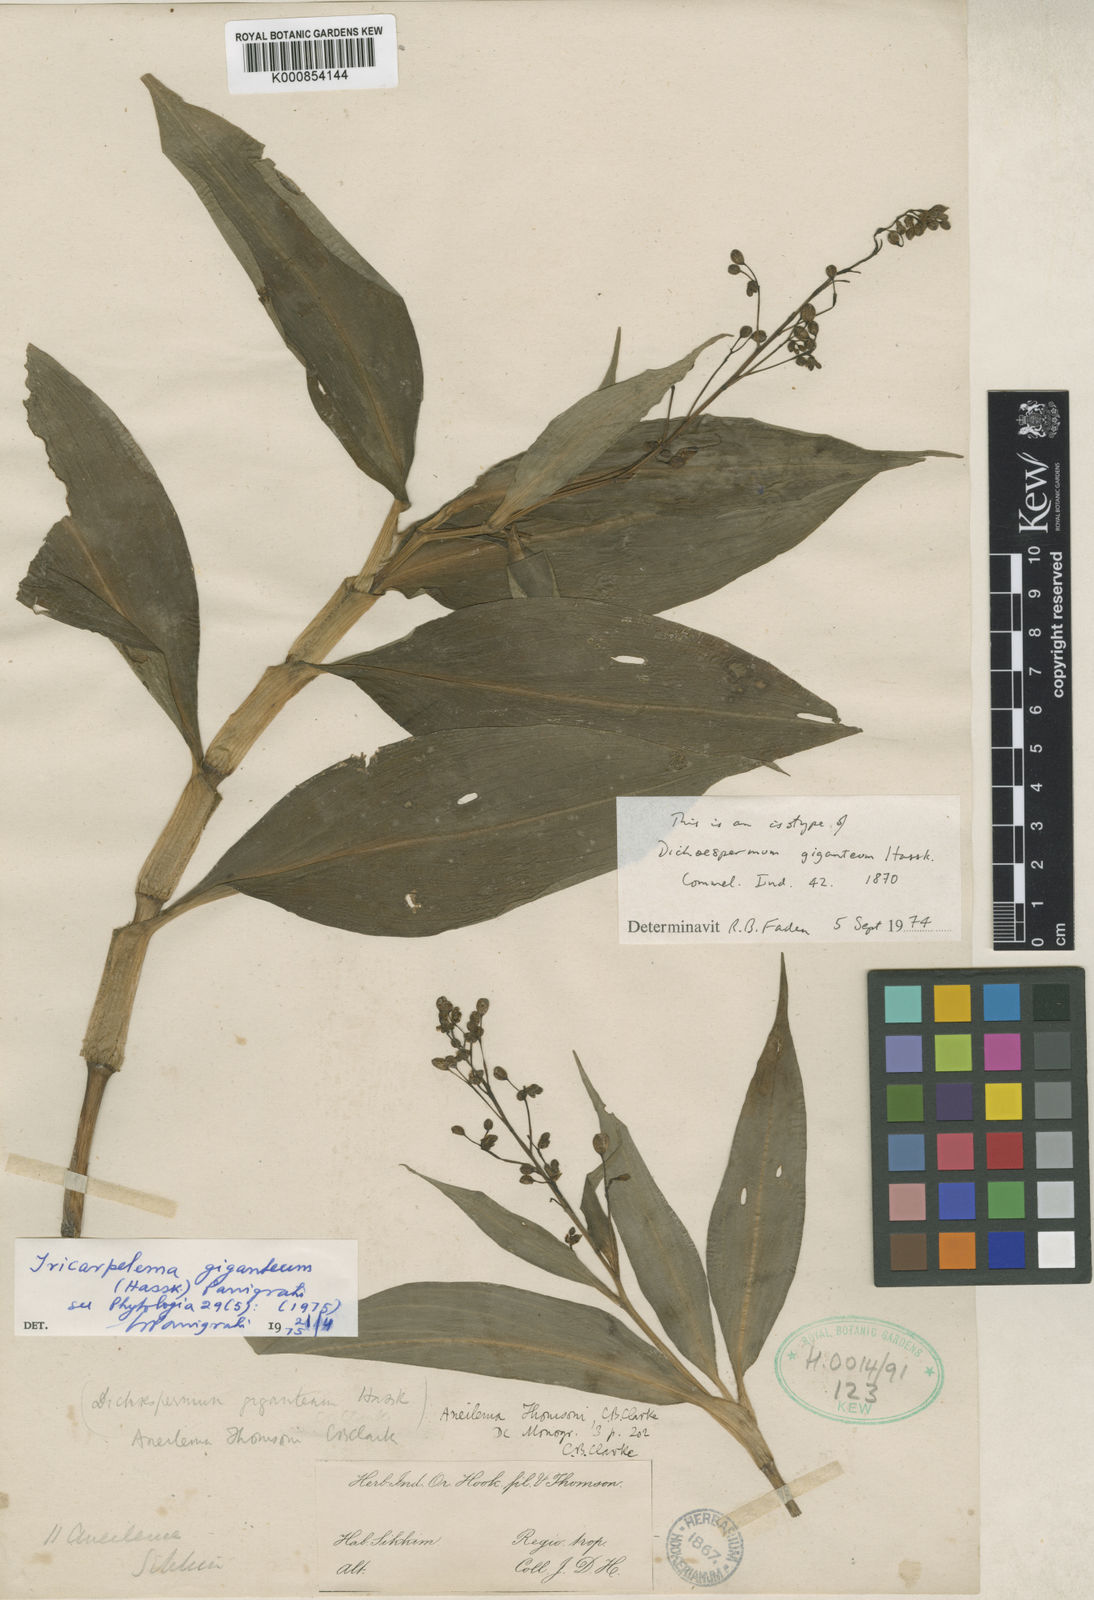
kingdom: Plantae
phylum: Tracheophyta
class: Liliopsida
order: Commelinales
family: Commelinaceae
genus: Tricarpelema
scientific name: Tricarpelema
